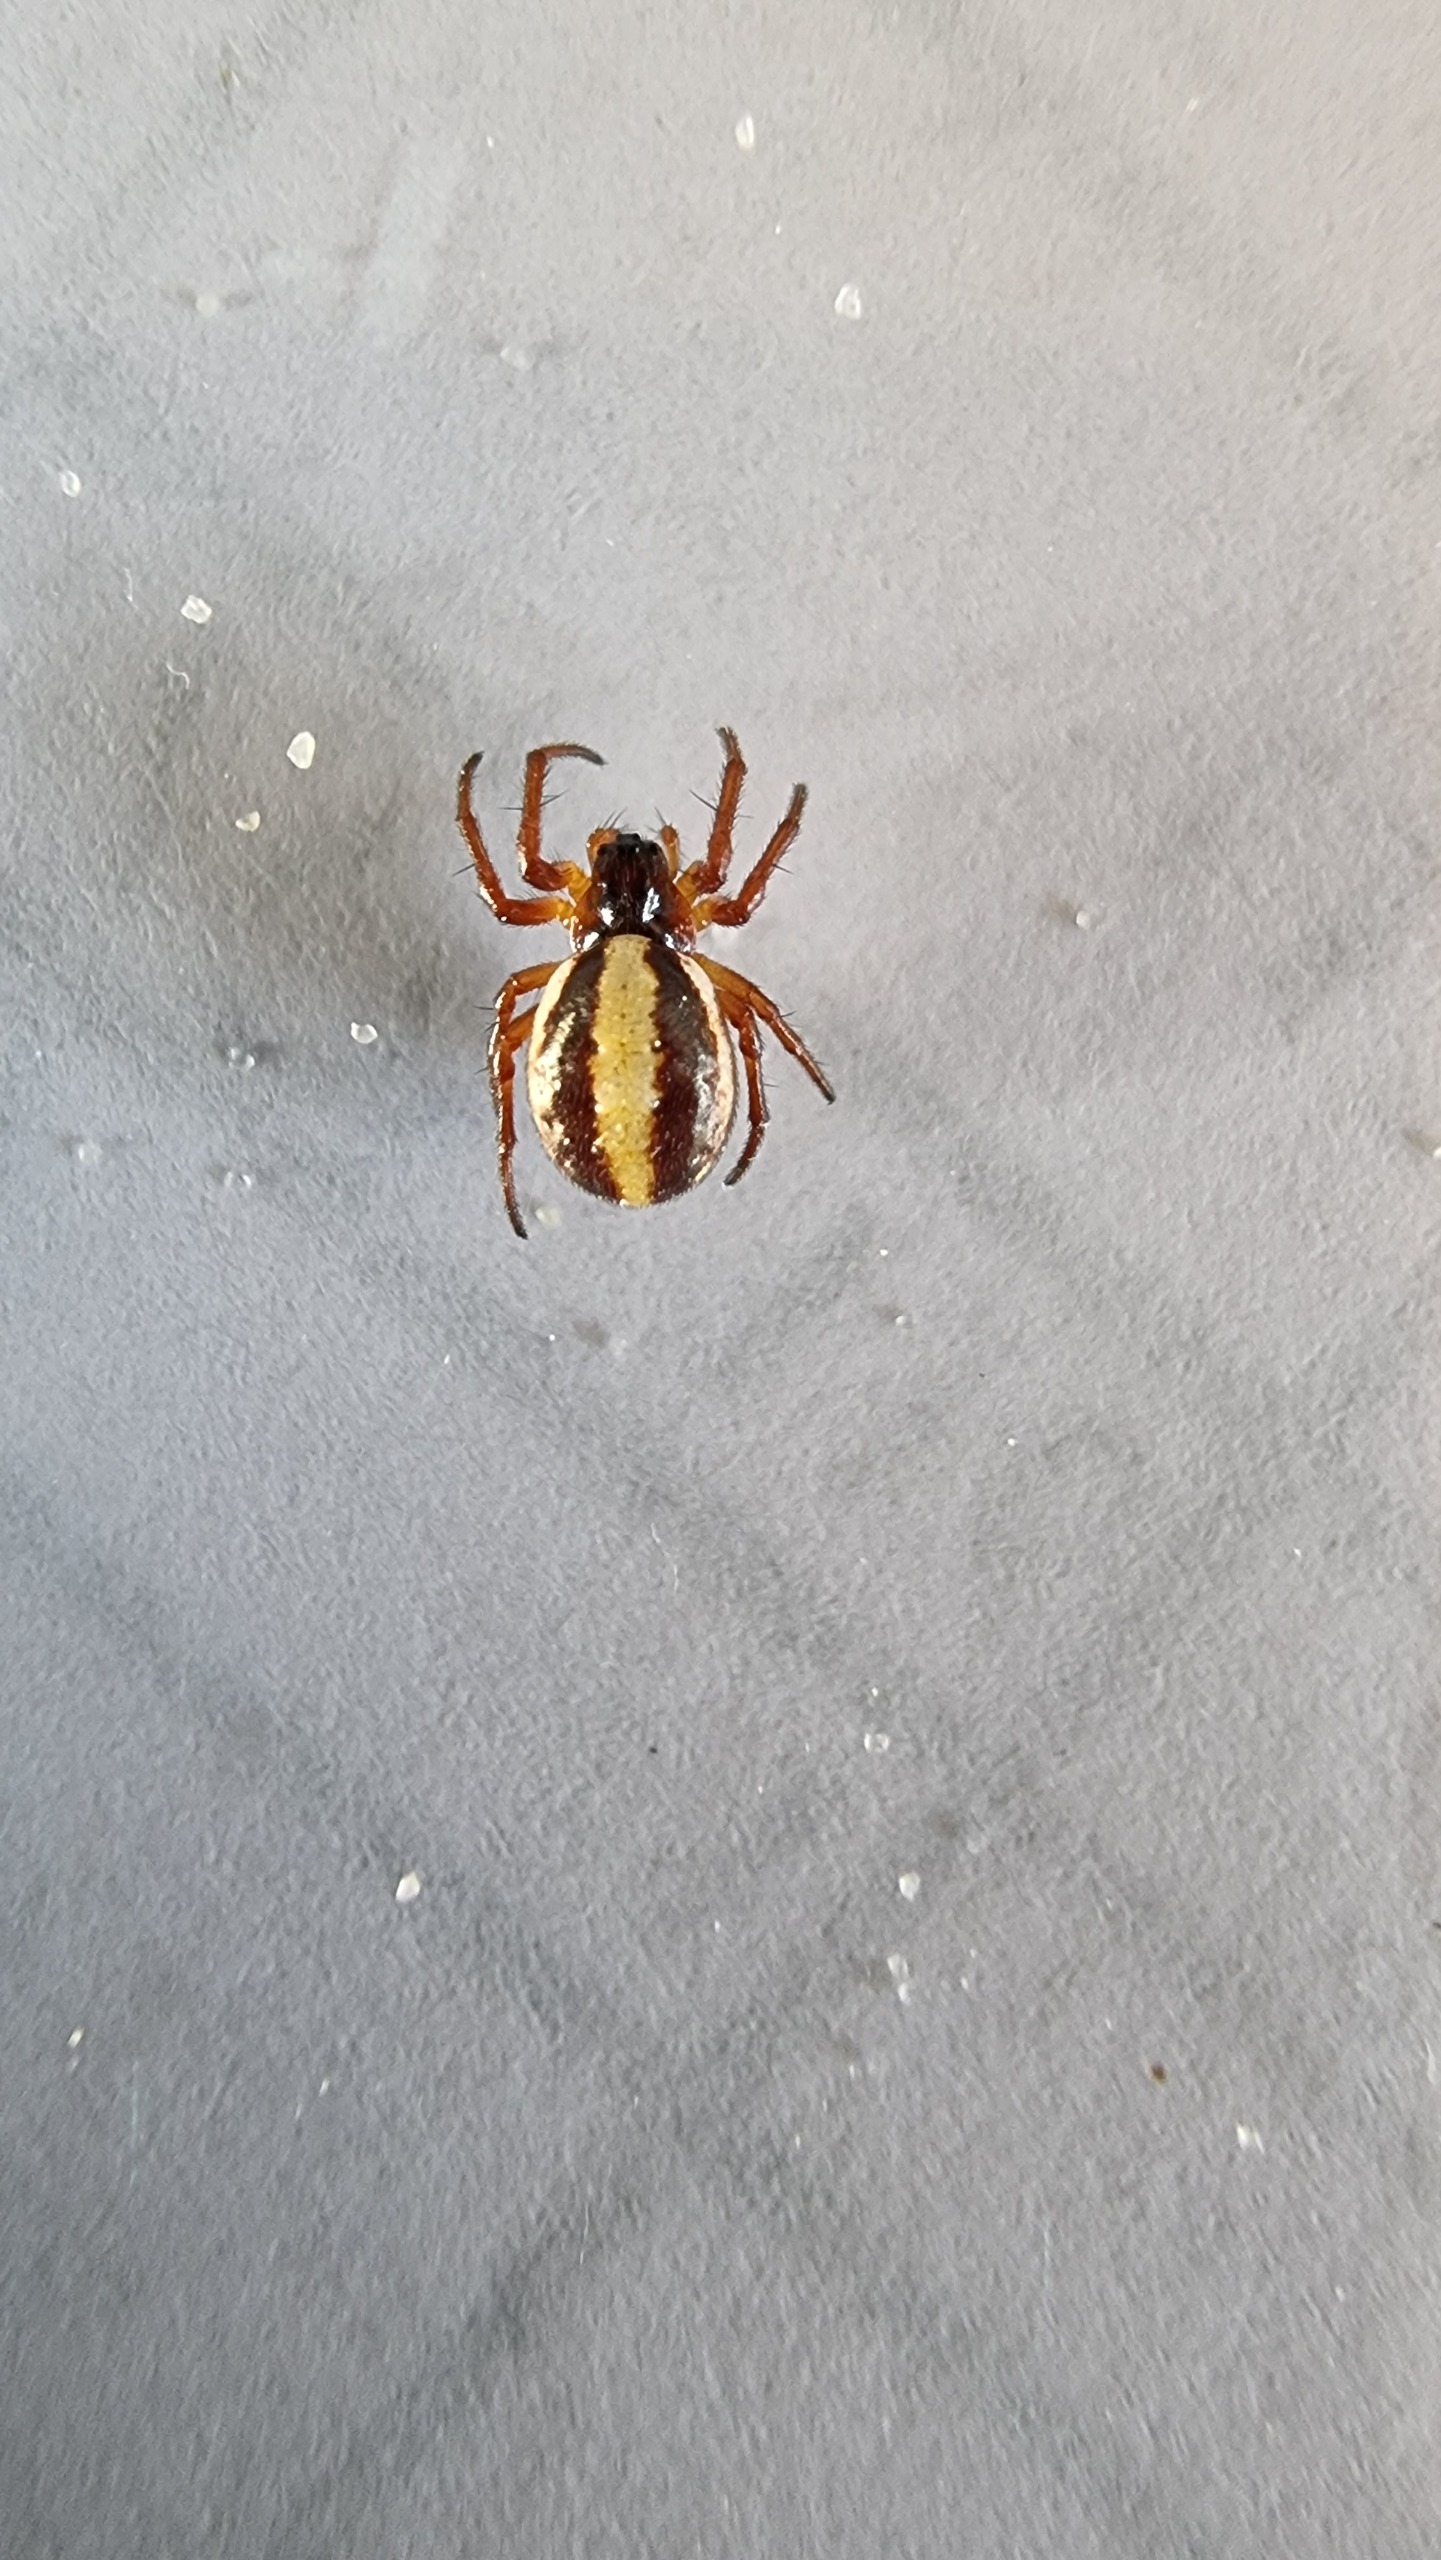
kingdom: Animalia
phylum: Arthropoda
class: Arachnida
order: Araneae
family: Araneidae
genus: Hypsosinga
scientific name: Hypsosinga pygmaea
